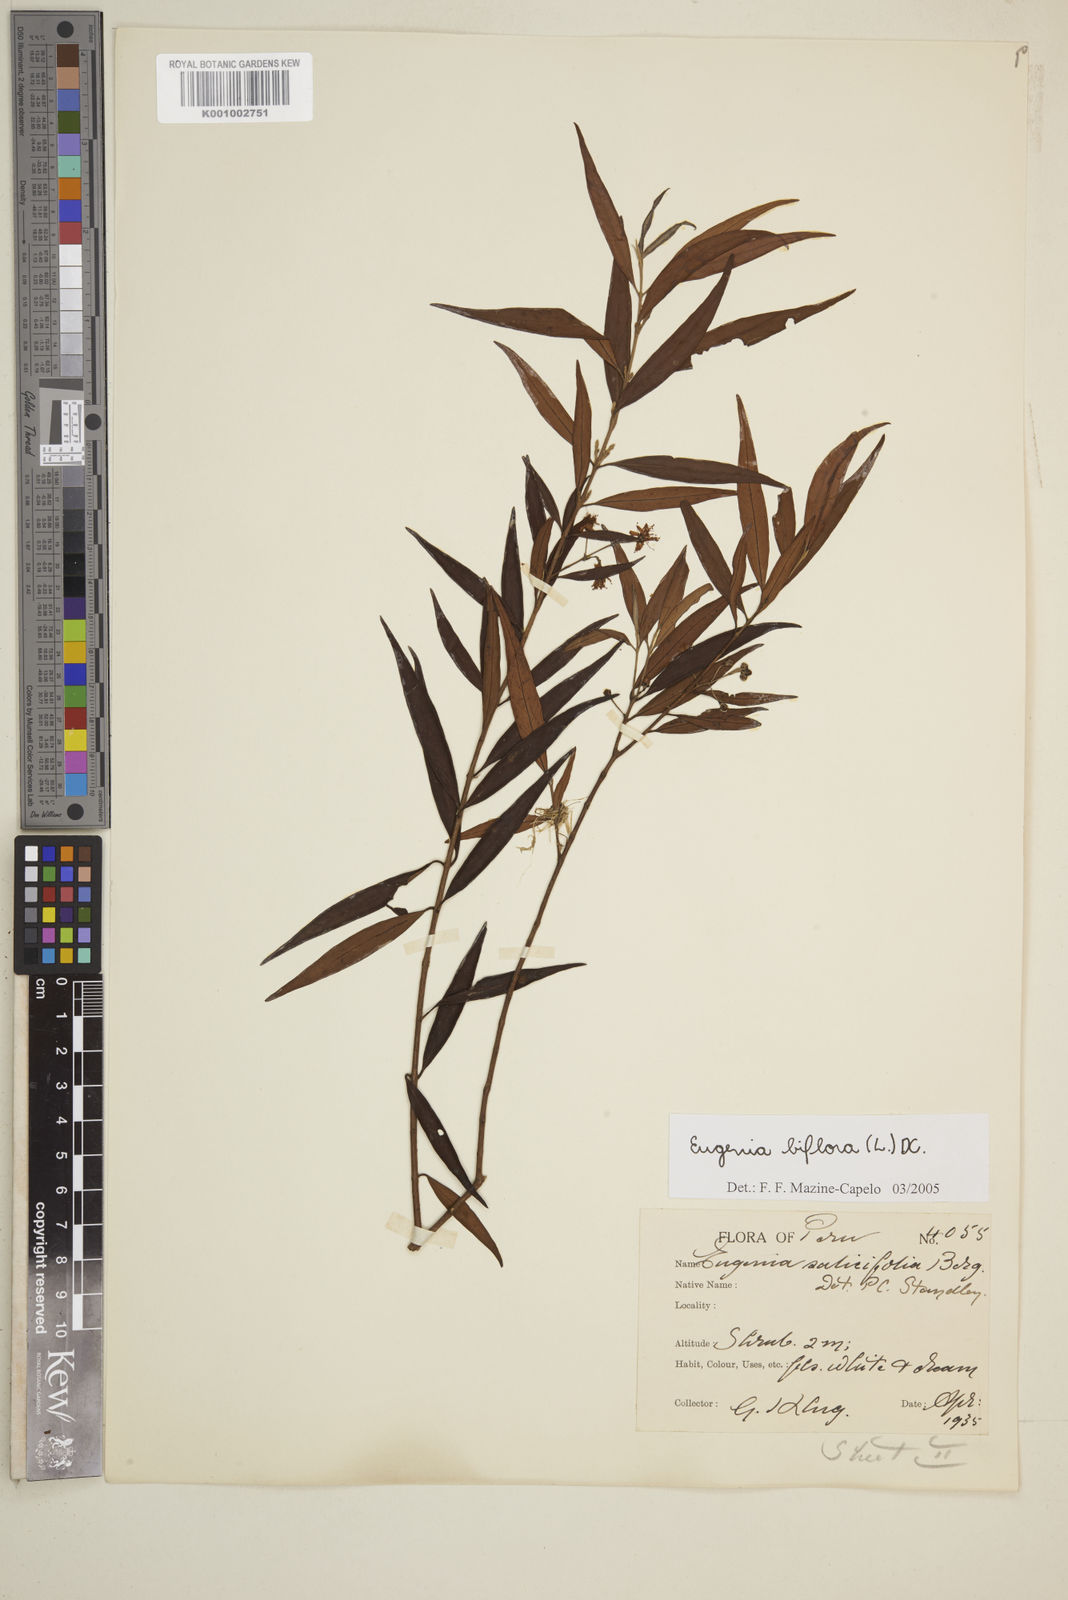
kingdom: Plantae
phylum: Tracheophyta
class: Magnoliopsida
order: Myrtales
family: Myrtaceae
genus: Eugenia
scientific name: Eugenia biflora
